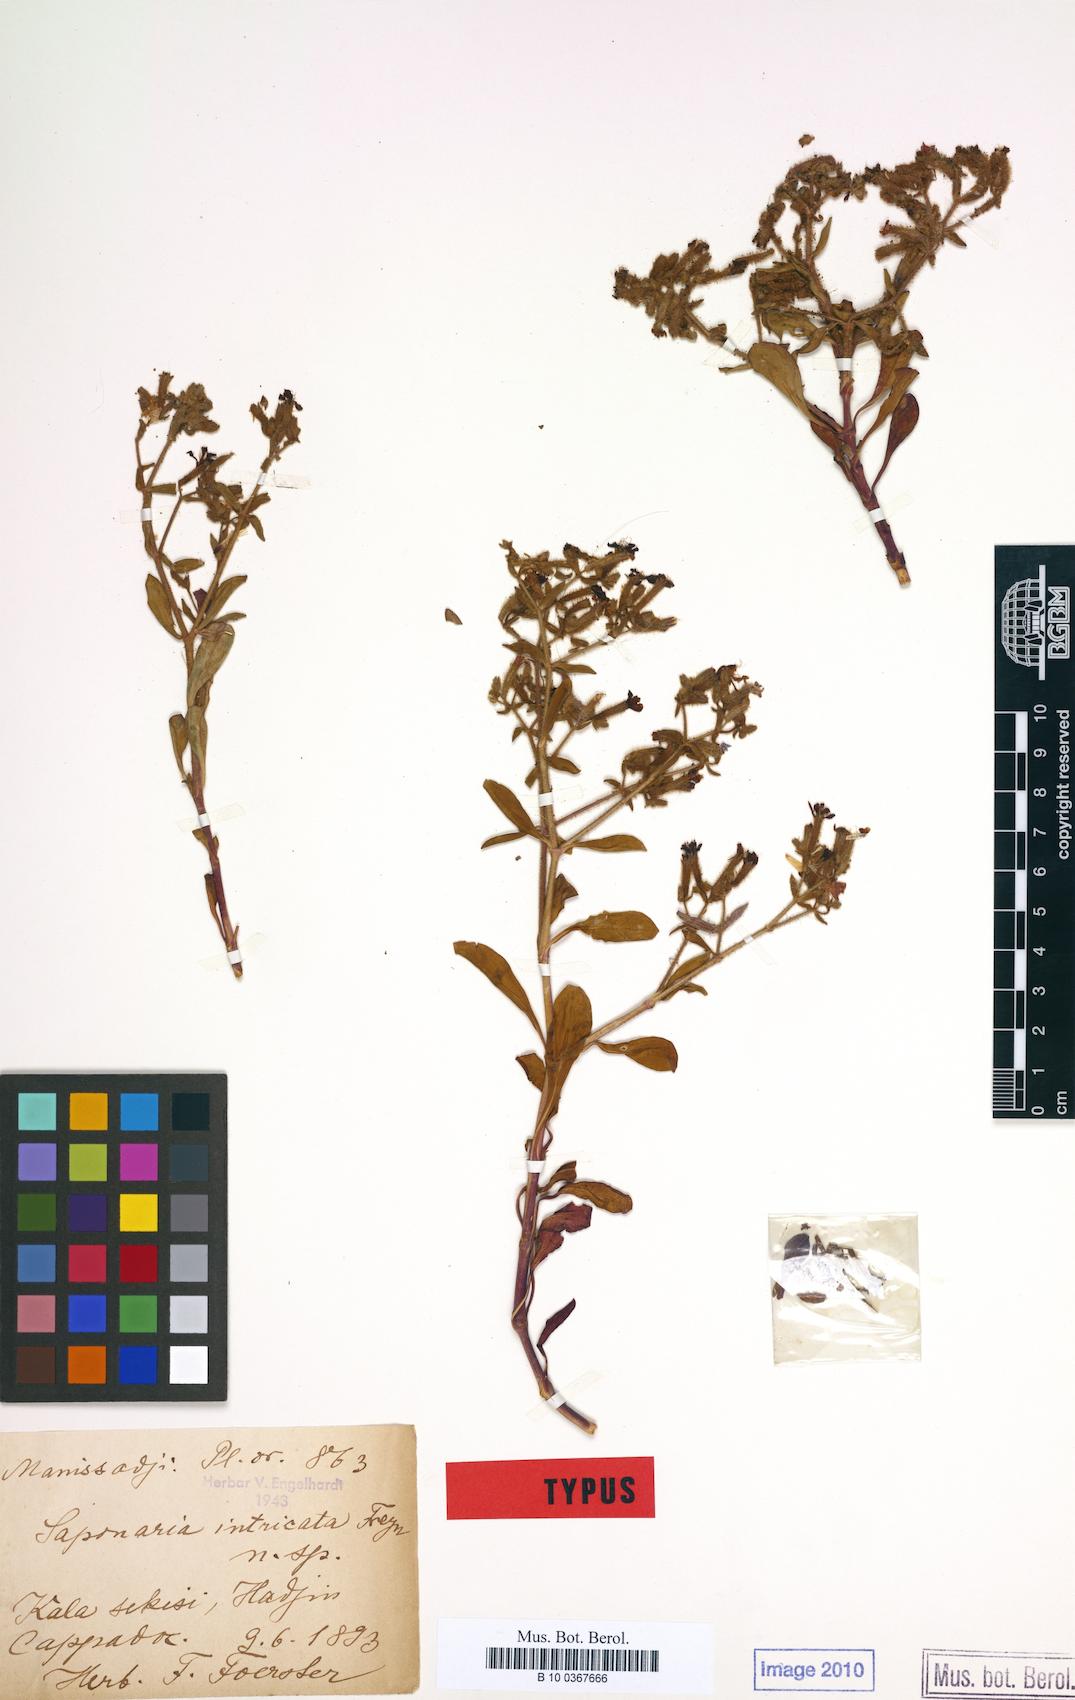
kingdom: Plantae
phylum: Tracheophyta
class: Magnoliopsida
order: Caryophyllales
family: Caryophyllaceae
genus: Saponaria
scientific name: Saponaria kotschyi
